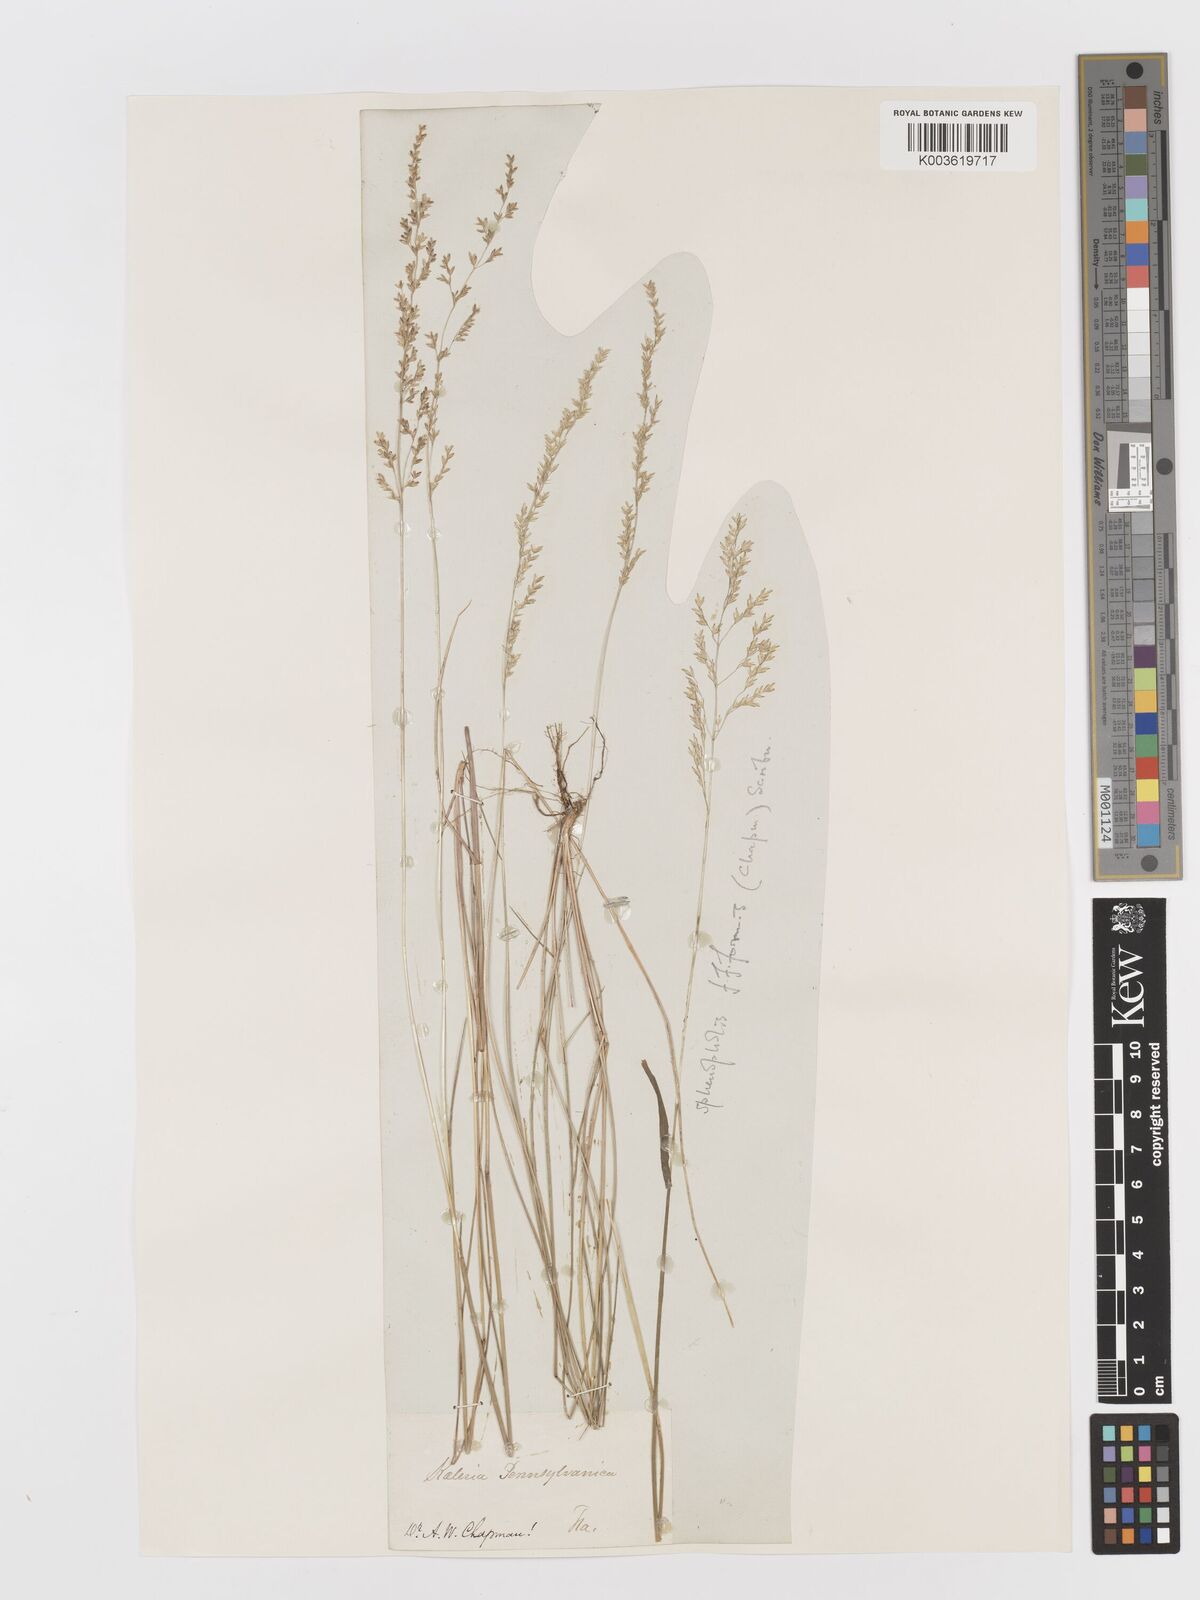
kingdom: Plantae
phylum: Tracheophyta
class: Liliopsida
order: Poales
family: Poaceae
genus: Sphenopholis
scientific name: Sphenopholis filiformis
